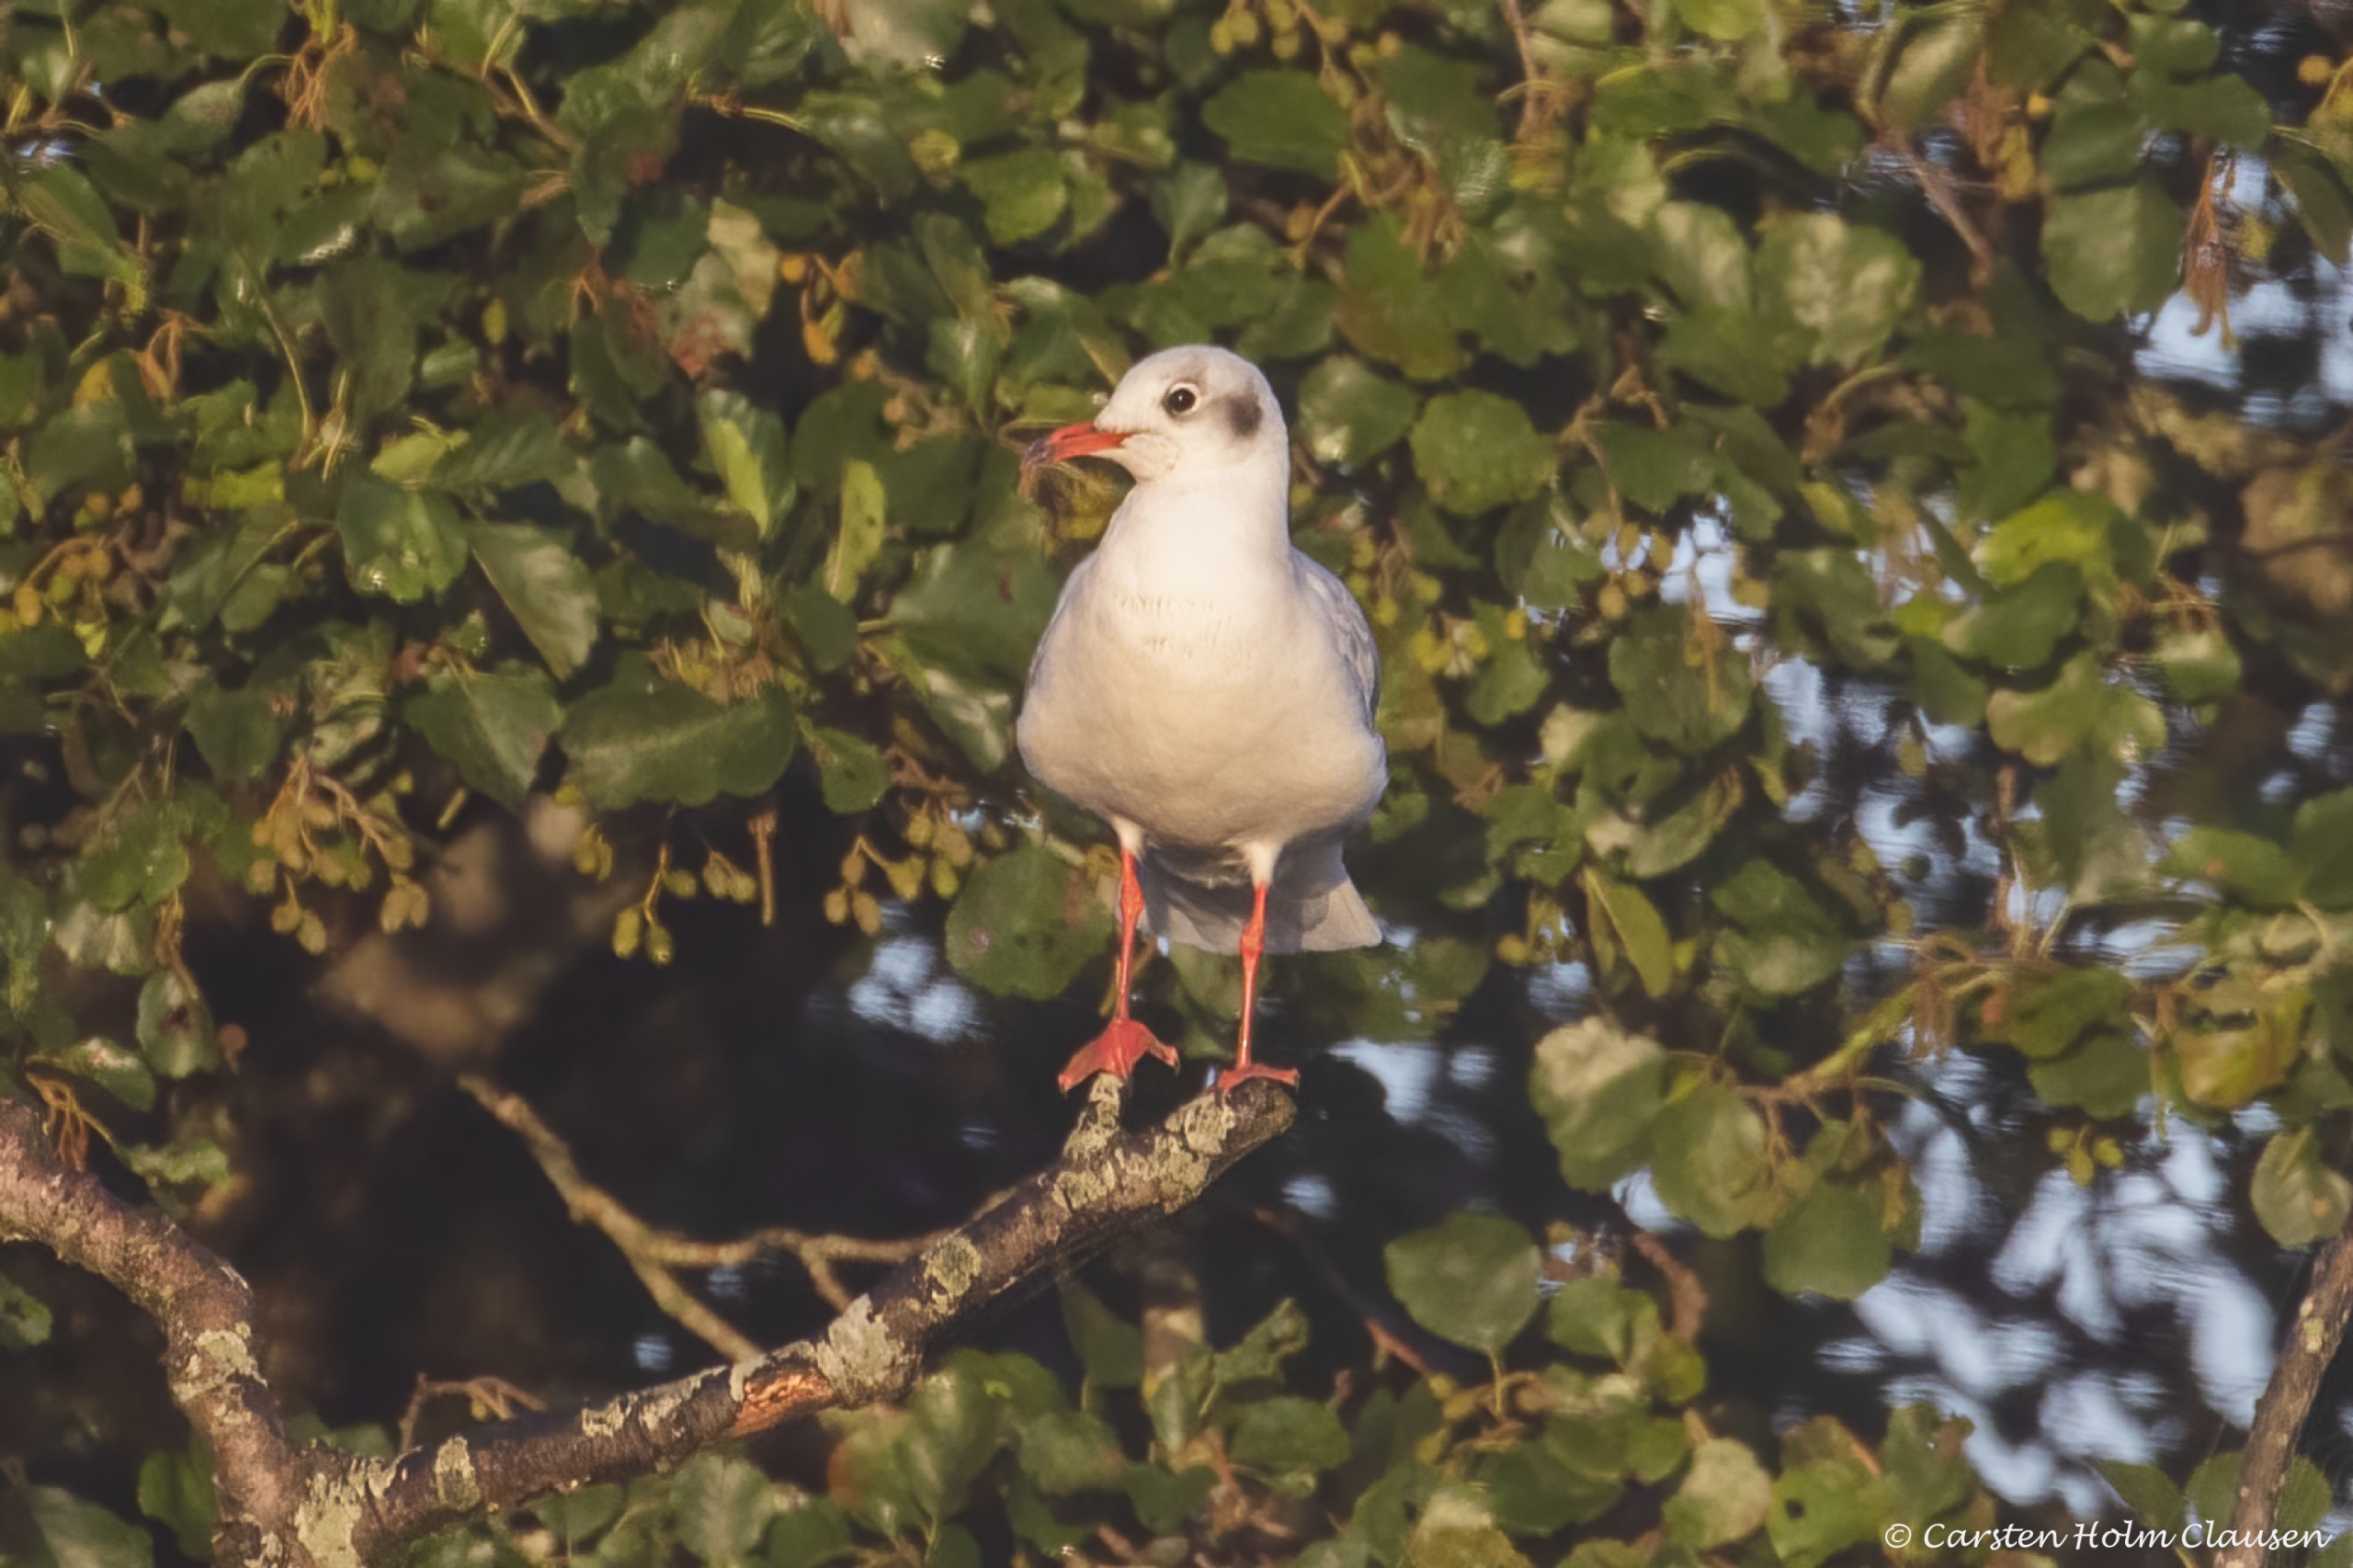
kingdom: Animalia
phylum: Chordata
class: Aves
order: Charadriiformes
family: Laridae
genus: Chroicocephalus
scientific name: Chroicocephalus ridibundus
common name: Hættemåge
